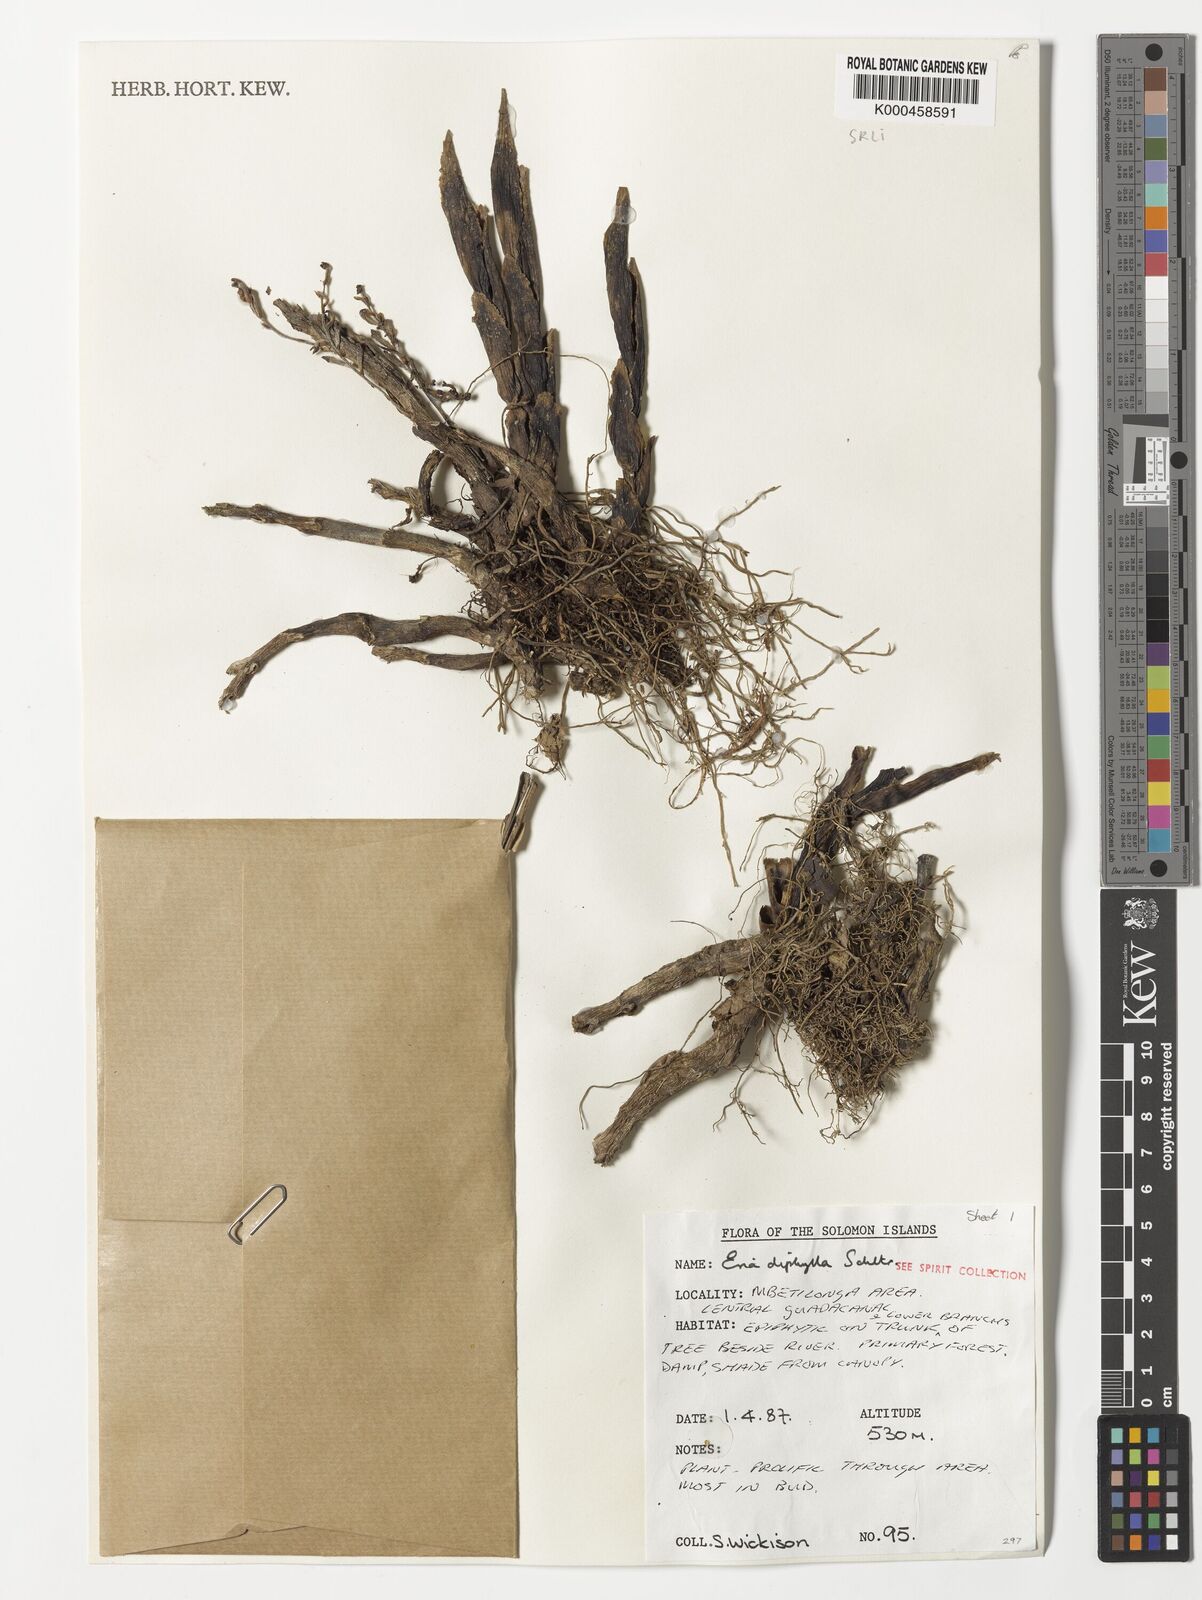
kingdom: Plantae
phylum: Tracheophyta
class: Liliopsida
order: Asparagales
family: Orchidaceae
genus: Bryobium
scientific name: Bryobium eriaeoides
